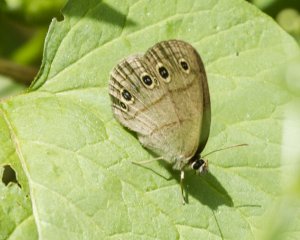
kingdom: Animalia
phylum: Arthropoda
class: Insecta
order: Lepidoptera
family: Nymphalidae
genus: Euptychia
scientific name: Euptychia cymela
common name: Little Wood Satyr
